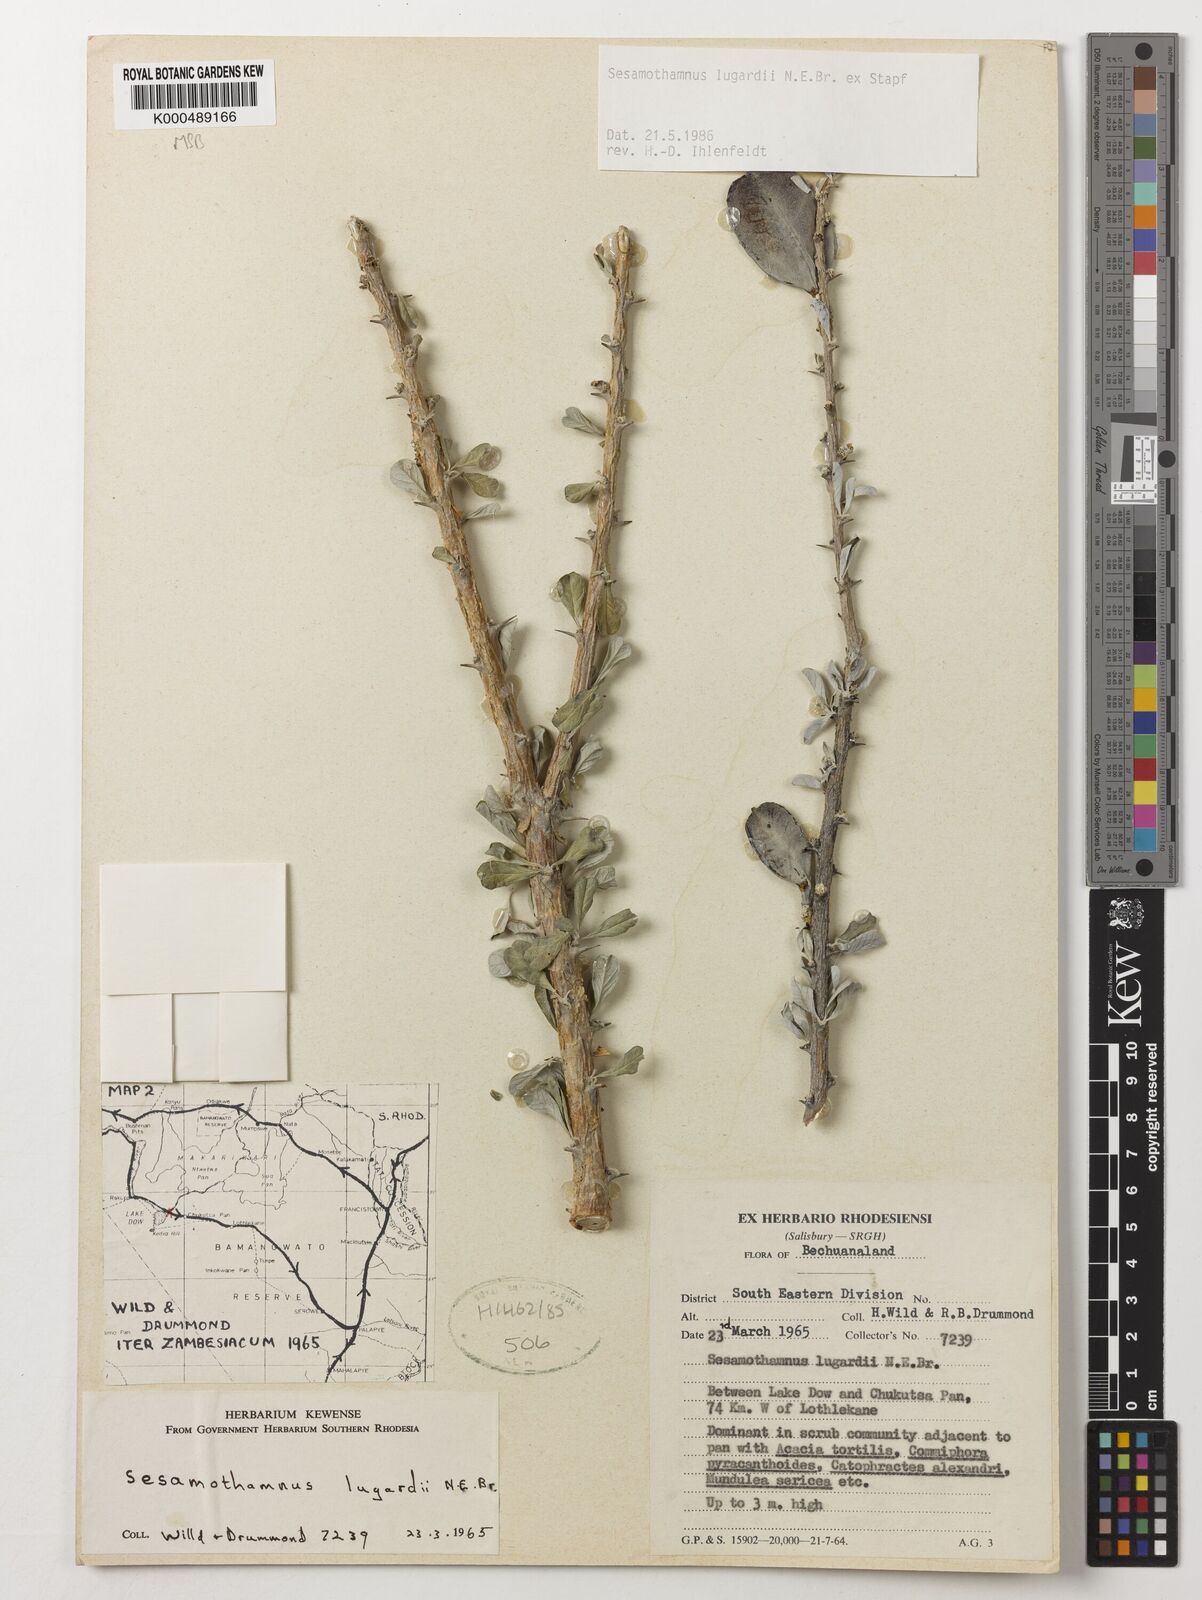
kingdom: Plantae
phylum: Tracheophyta
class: Magnoliopsida
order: Lamiales
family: Pedaliaceae
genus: Sesamothamnus
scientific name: Sesamothamnus lugardii
